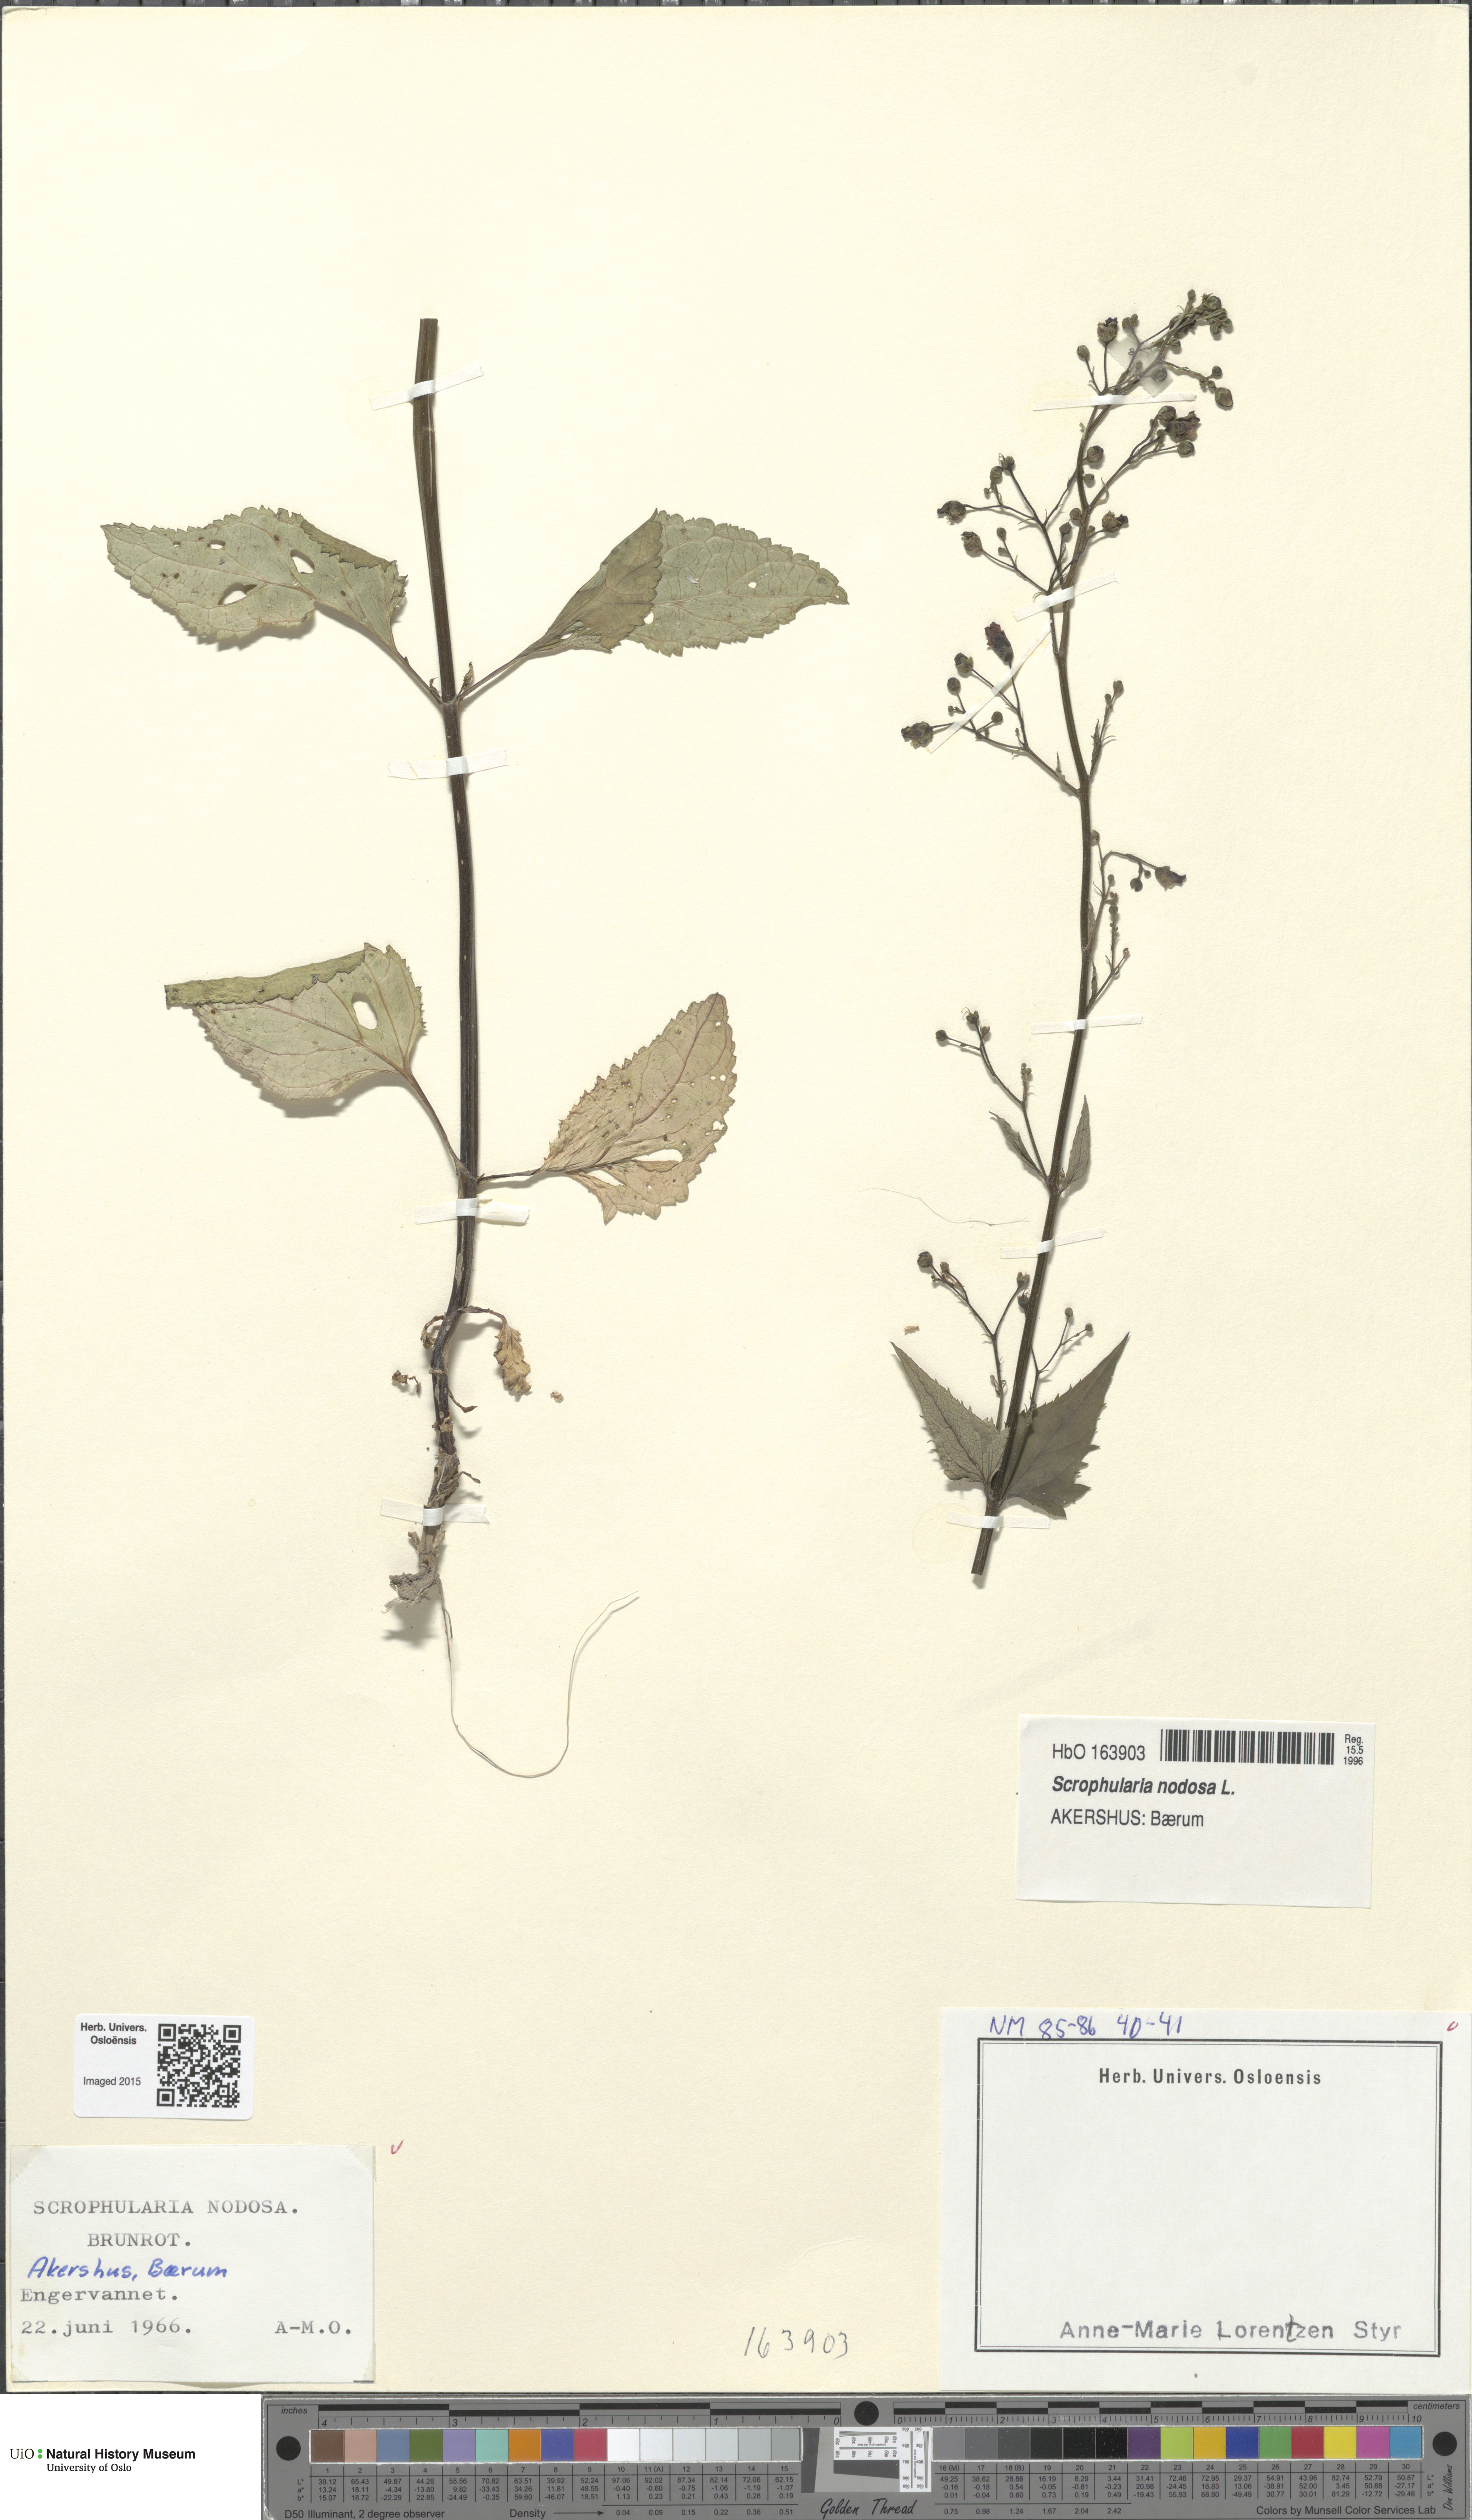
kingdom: Plantae
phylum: Tracheophyta
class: Magnoliopsida
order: Lamiales
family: Scrophulariaceae
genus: Scrophularia
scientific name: Scrophularia nodosa
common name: Common figwort
